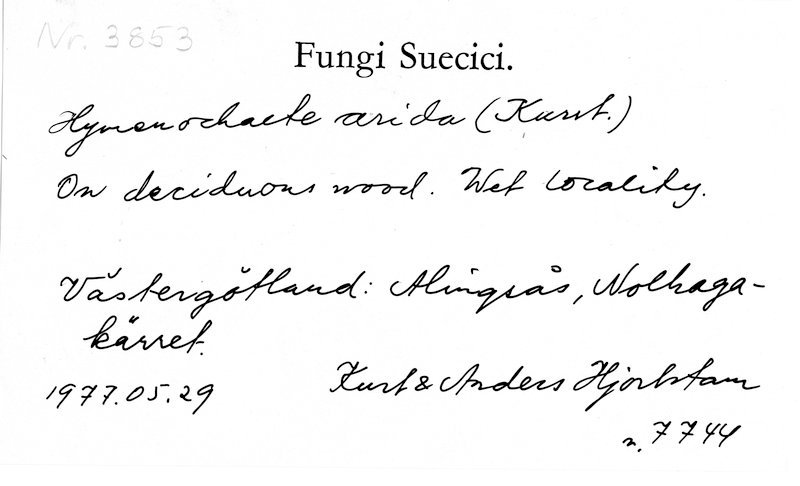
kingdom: Fungi
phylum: Basidiomycota
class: Agaricomycetes
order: Hymenochaetales
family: Hymenochaetaceae
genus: Hymenochaete
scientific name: Hymenochaete cinnamomea
